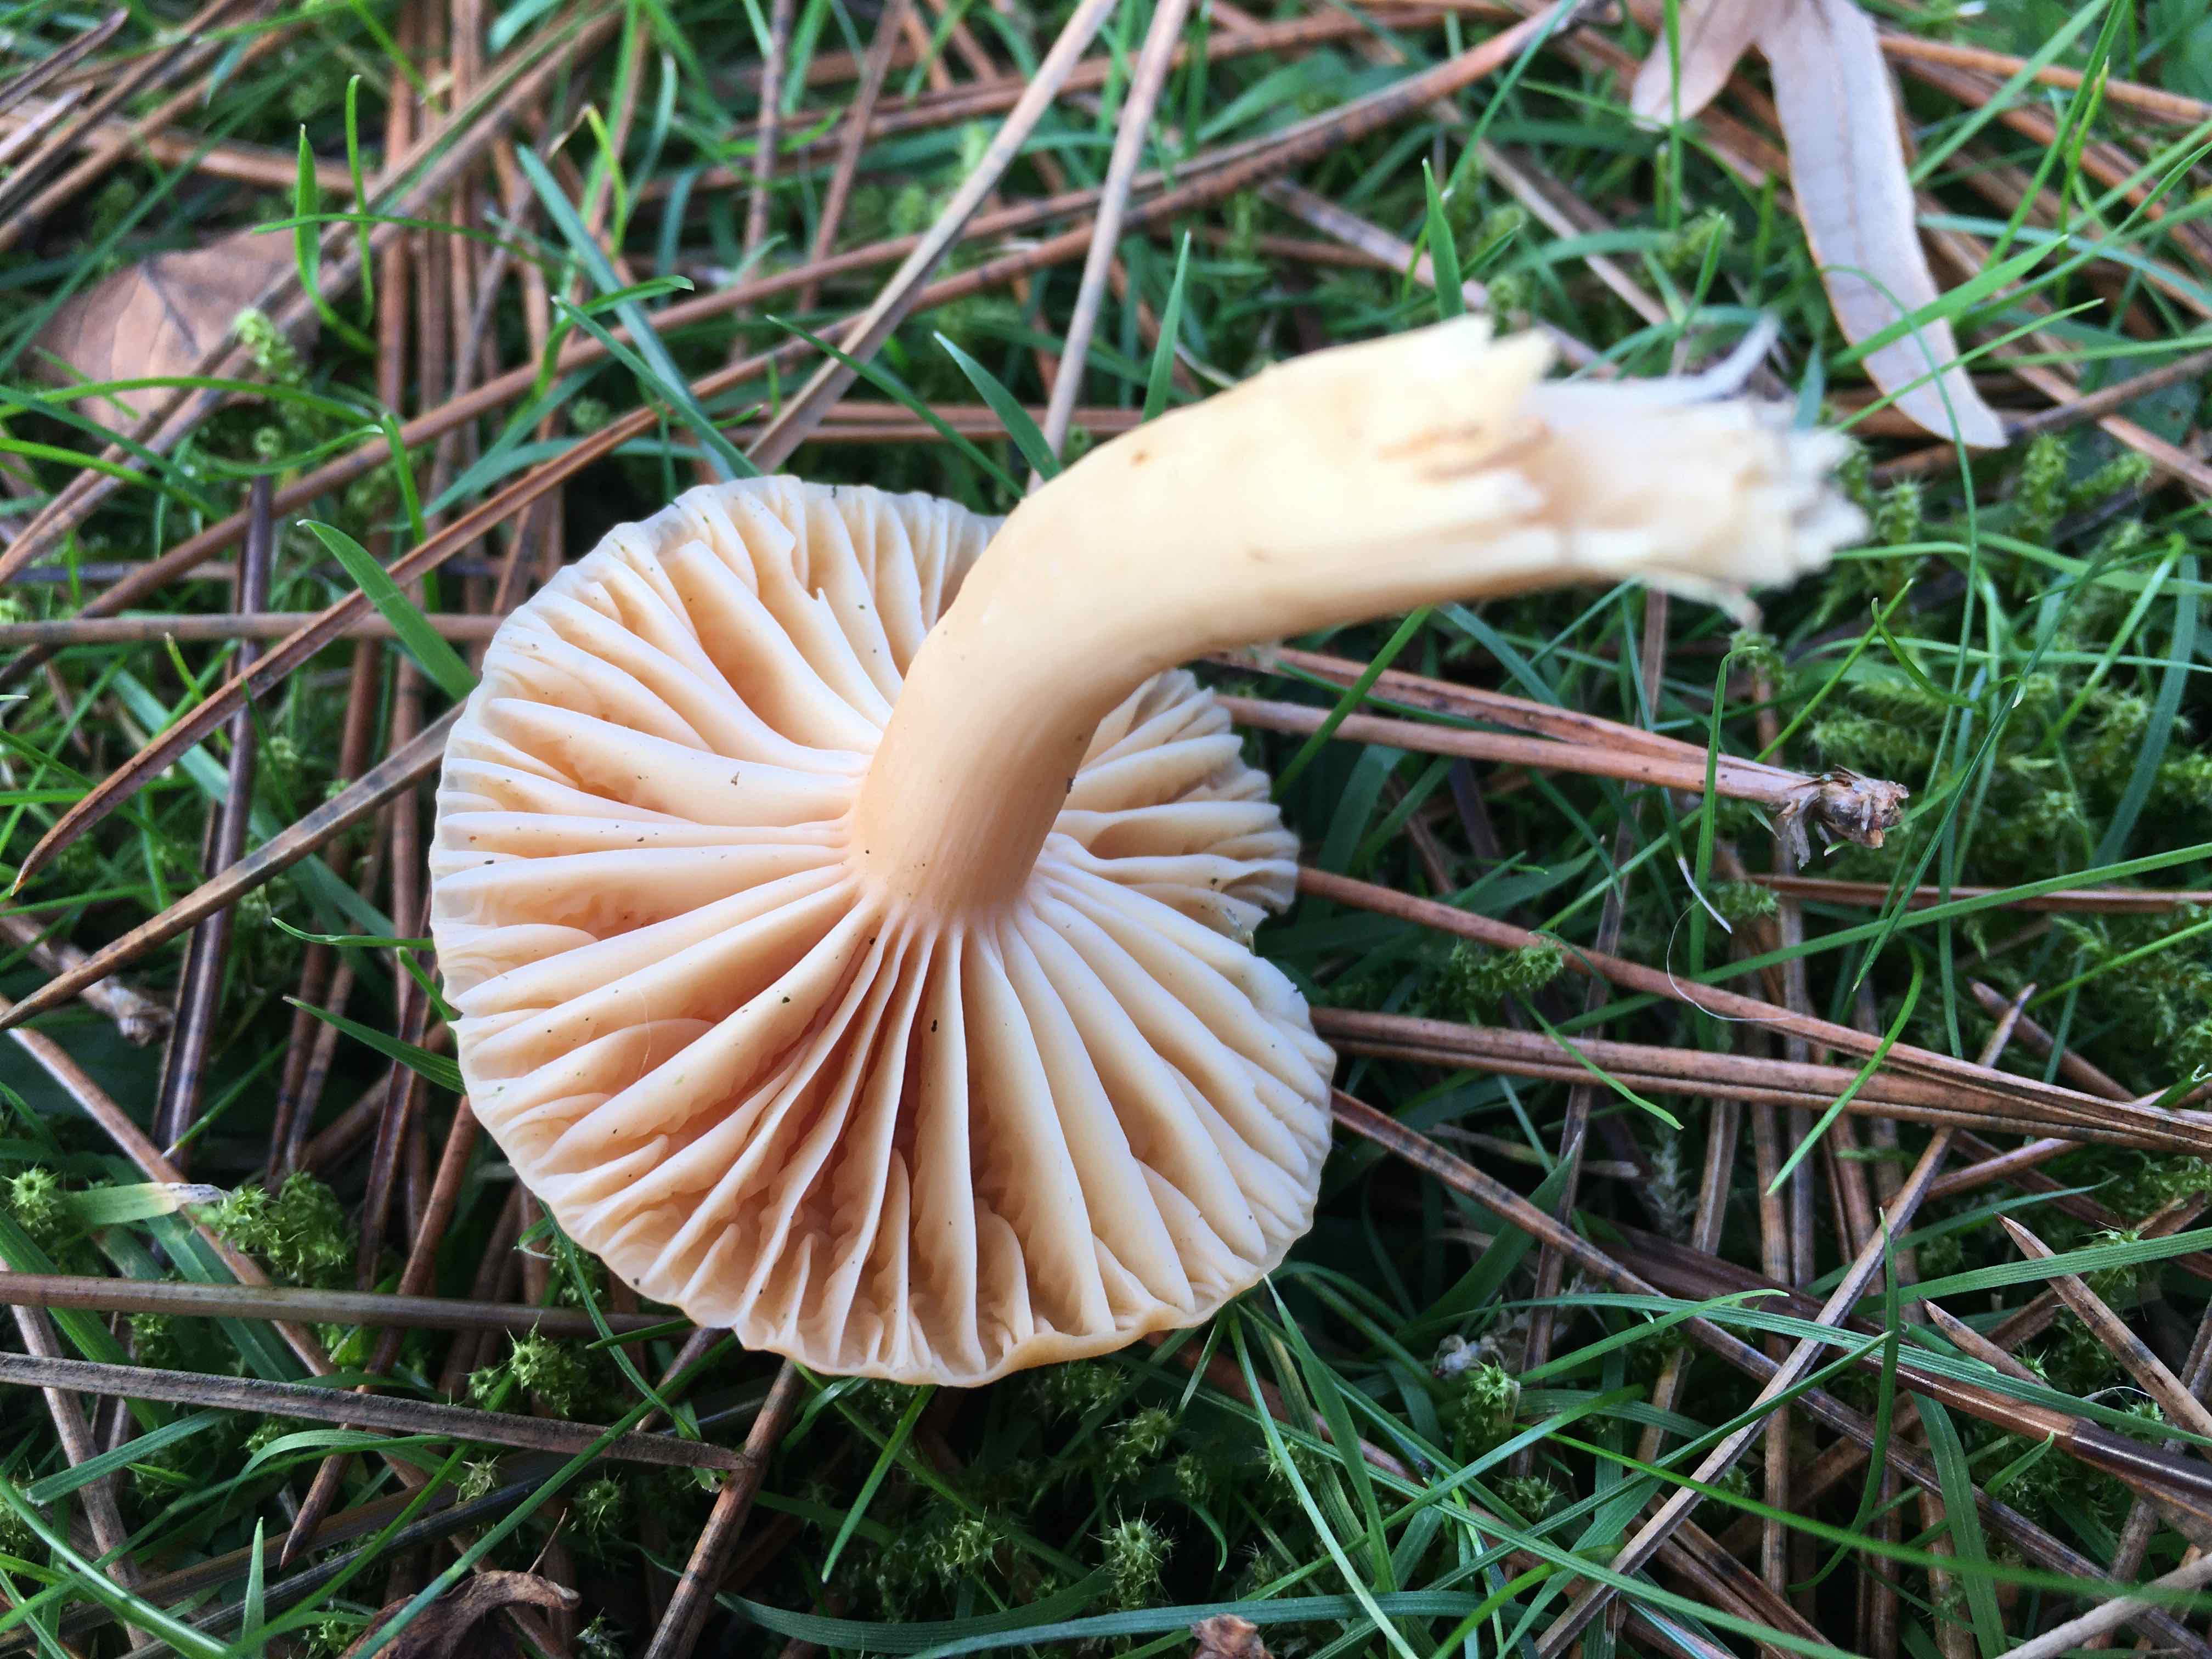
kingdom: Fungi
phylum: Basidiomycota
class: Agaricomycetes
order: Agaricales
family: Hygrophoraceae
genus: Cuphophyllus
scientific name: Cuphophyllus pratensis
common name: eng-vokshat
